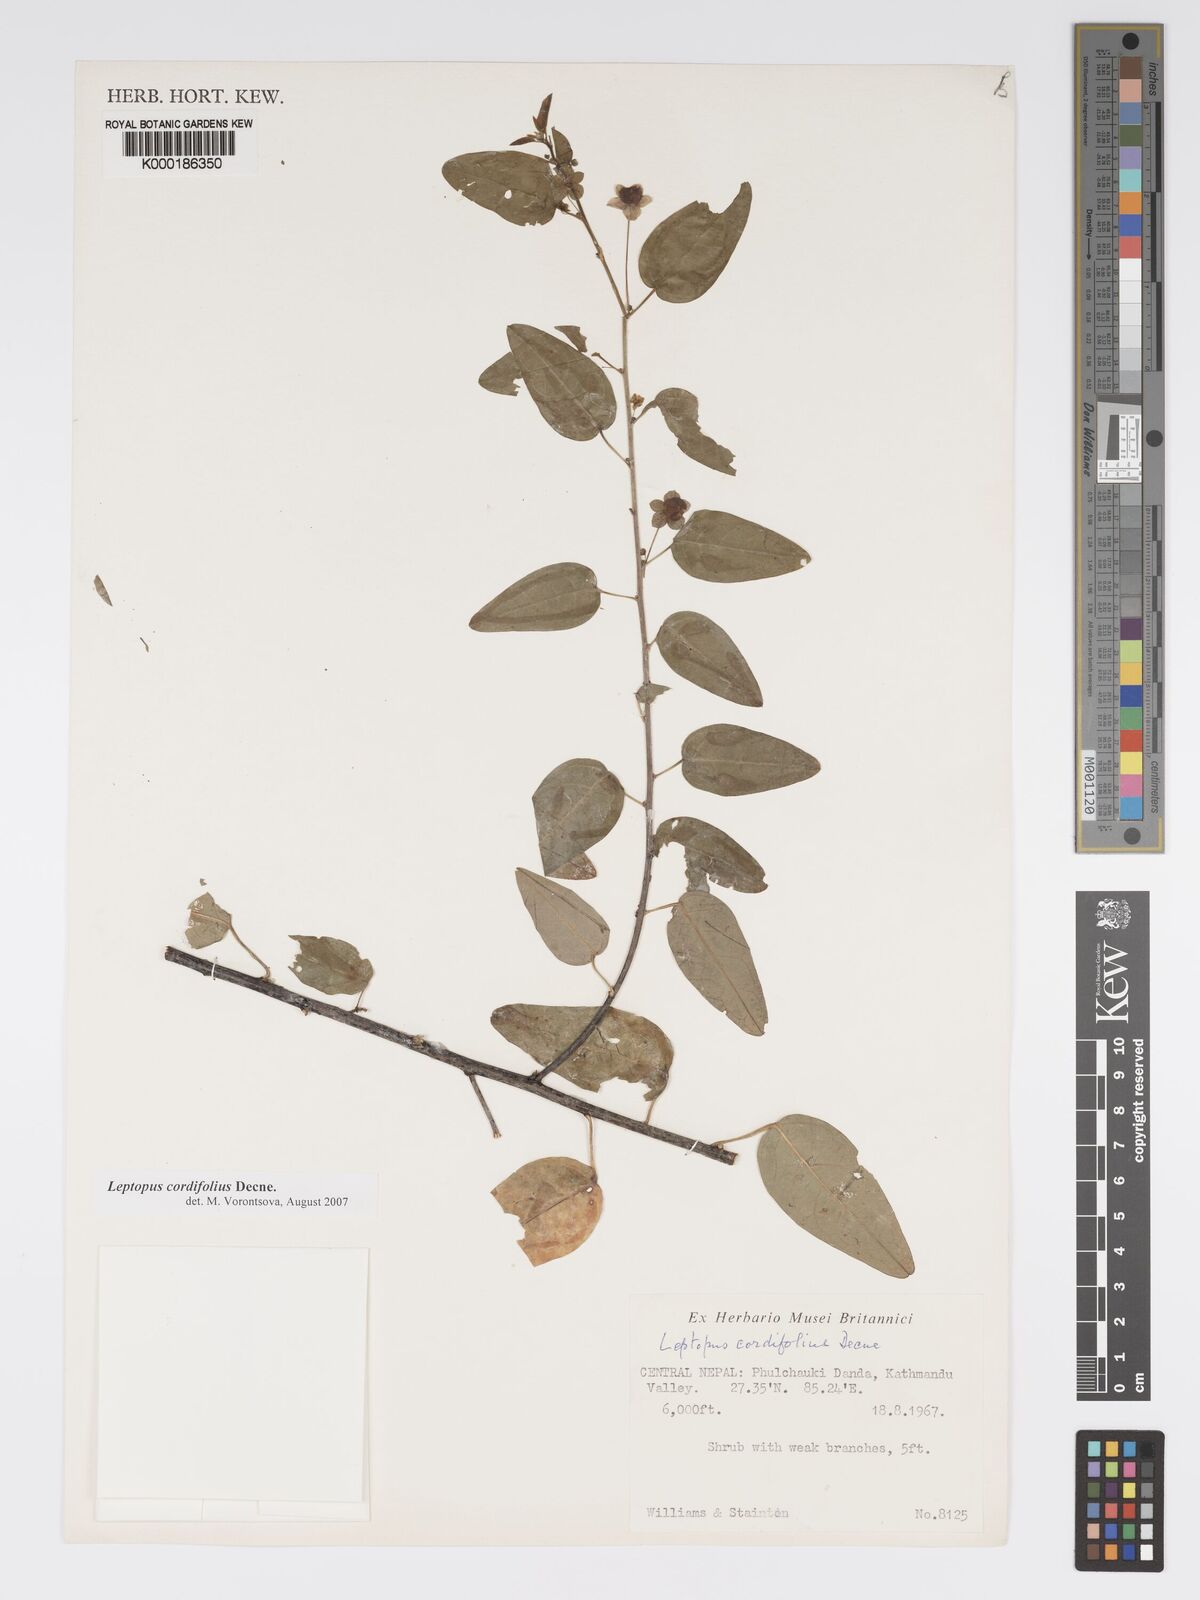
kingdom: Plantae
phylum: Tracheophyta
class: Magnoliopsida
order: Malpighiales
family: Phyllanthaceae
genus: Leptopus
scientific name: Leptopus cordifolius
